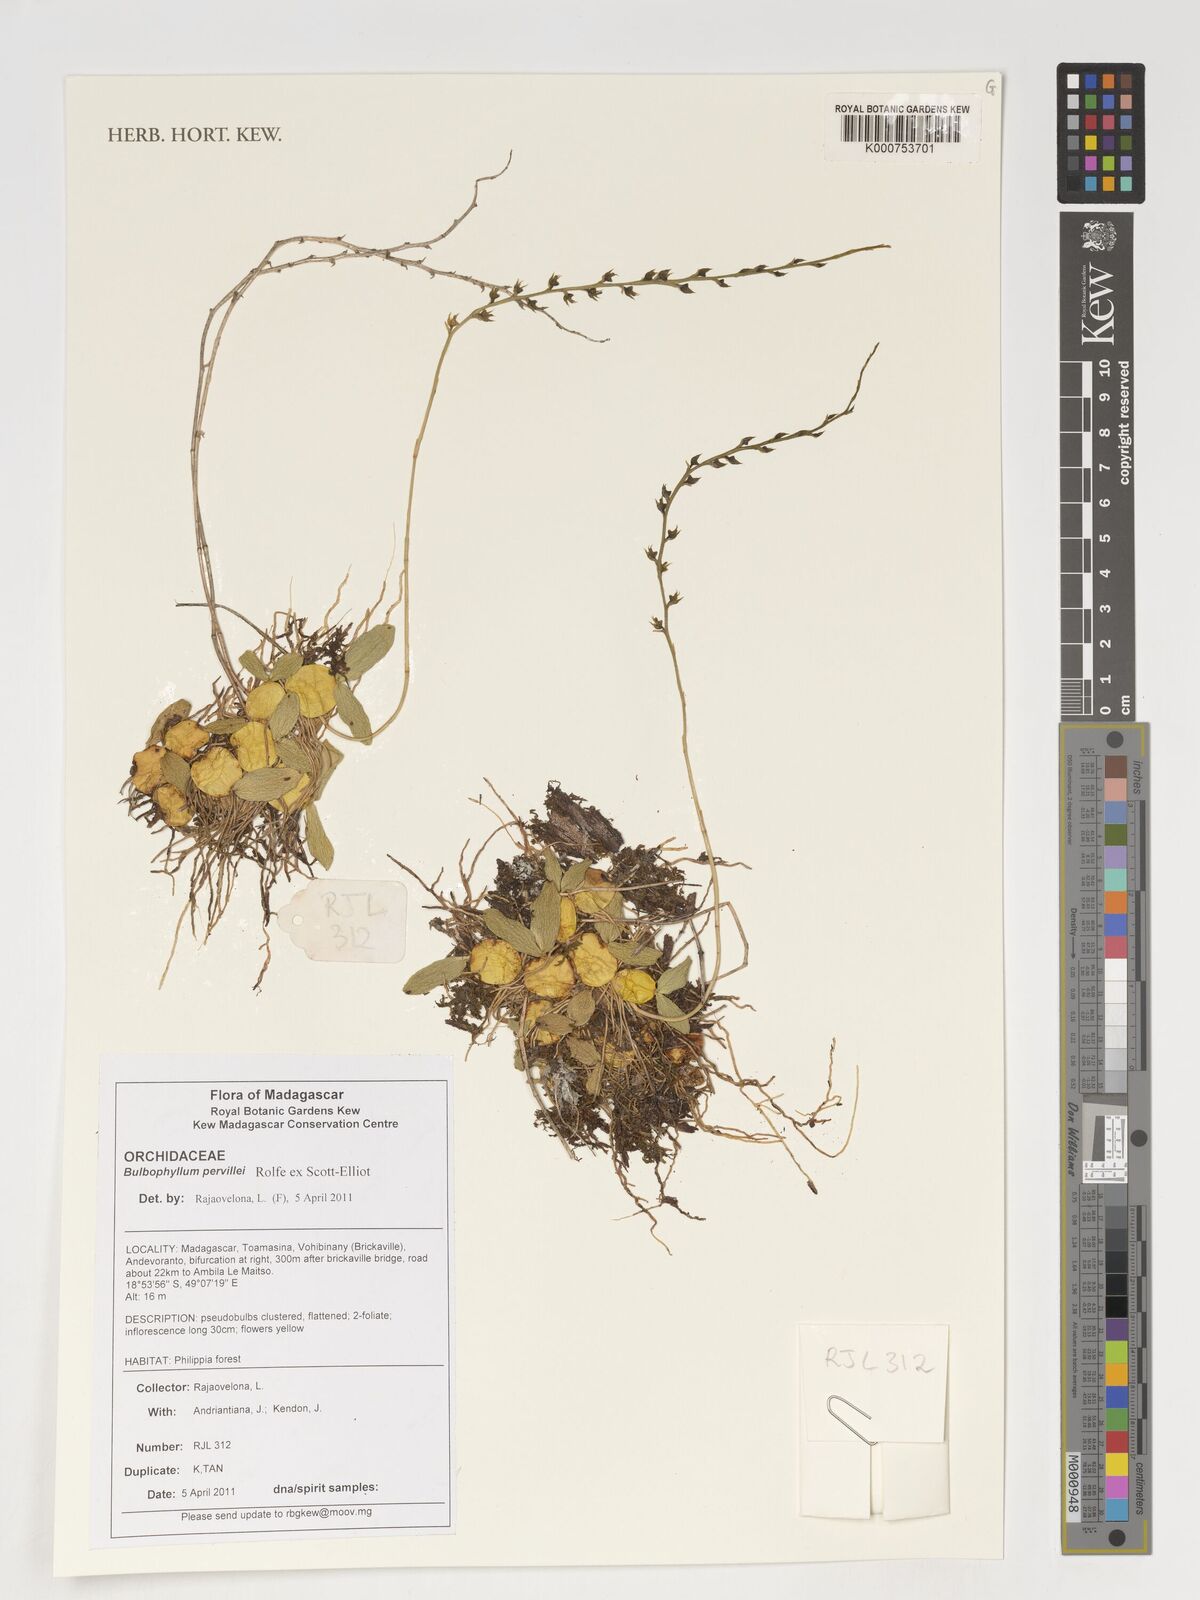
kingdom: Plantae
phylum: Tracheophyta
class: Liliopsida
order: Asparagales
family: Orchidaceae
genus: Bulbophyllum
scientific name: Bulbophyllum
